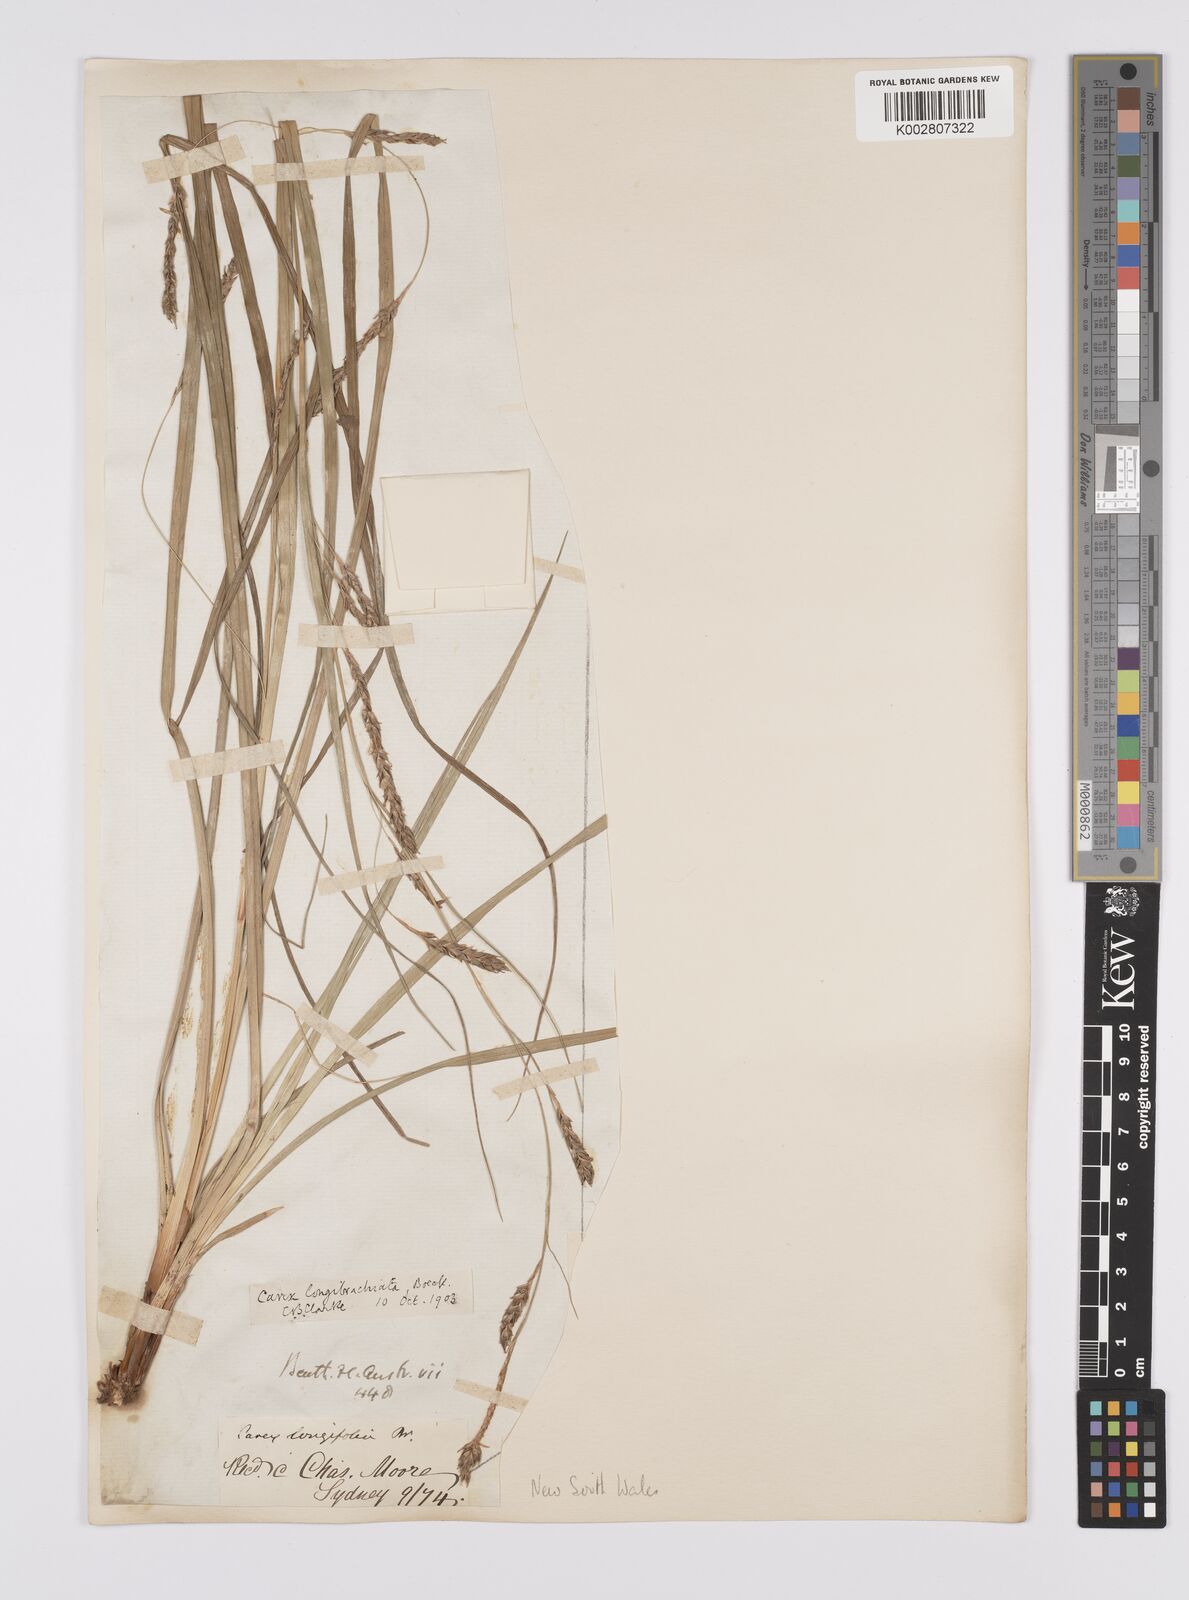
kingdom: Plantae
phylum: Tracheophyta
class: Liliopsida
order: Poales
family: Cyperaceae
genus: Carex
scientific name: Carex pseudocyperus
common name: Cyperus sedge
